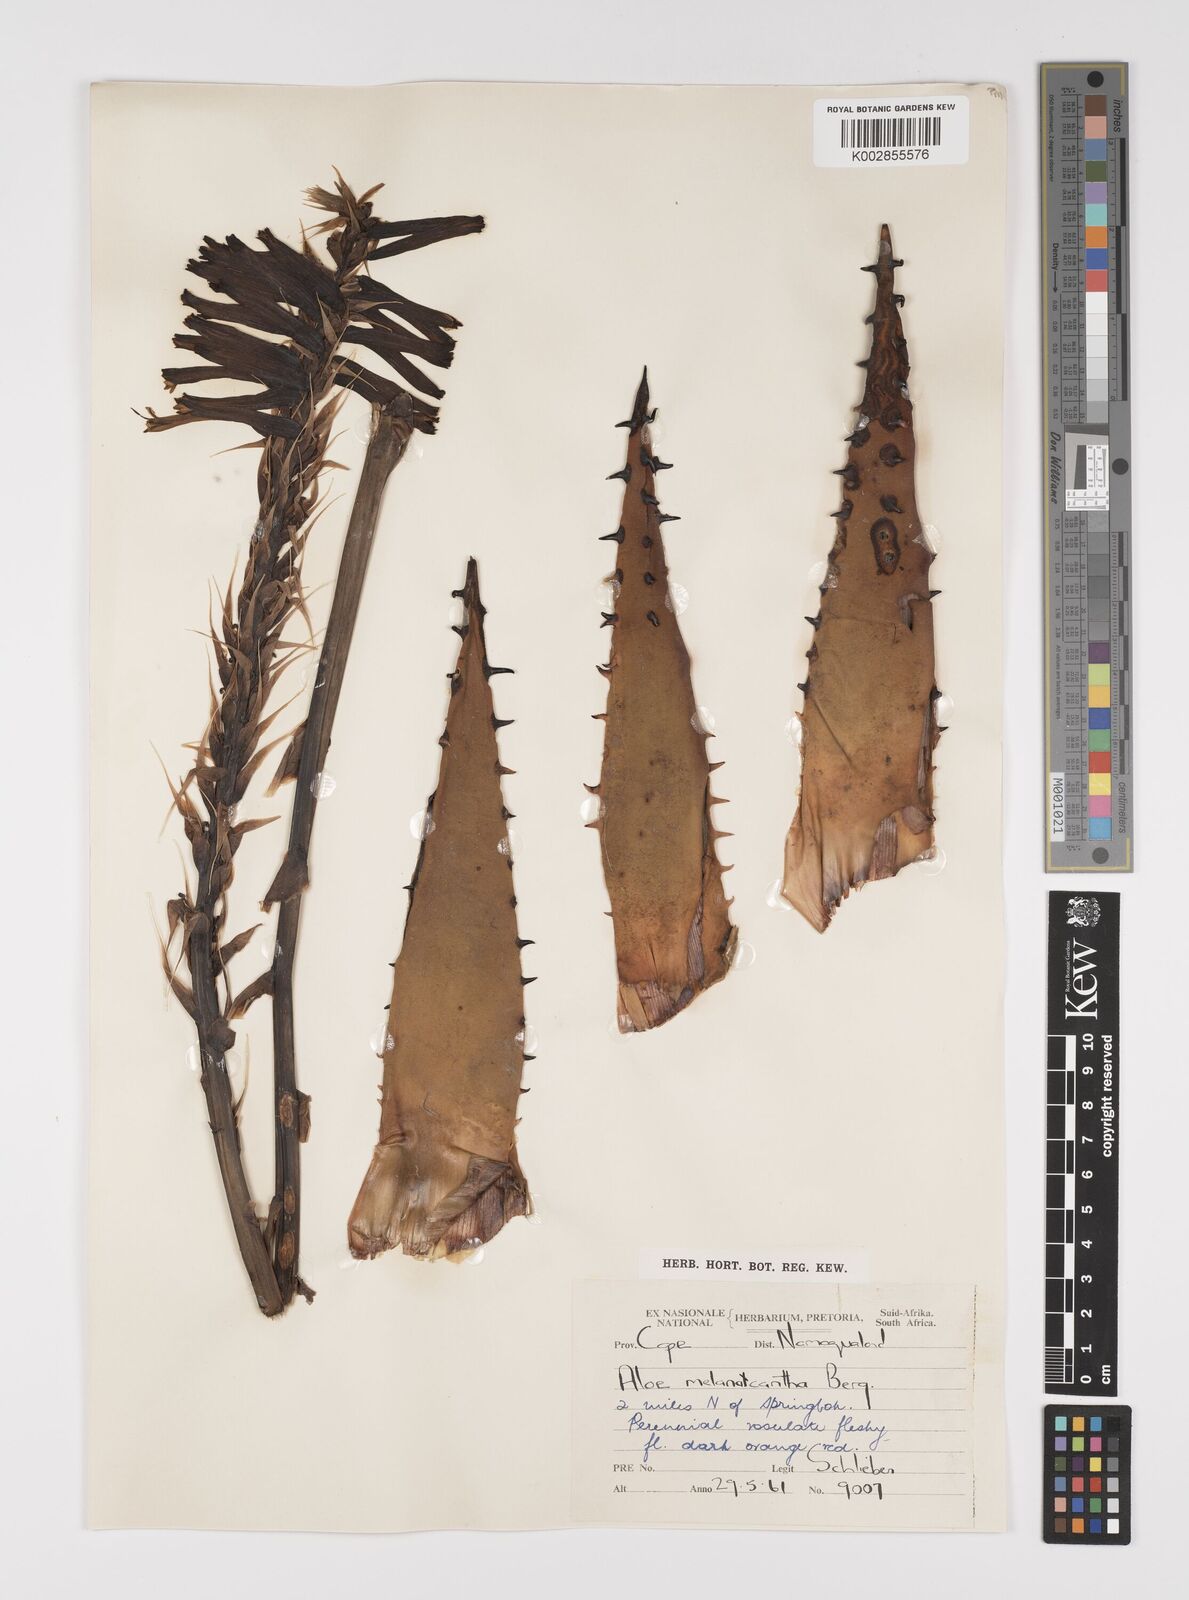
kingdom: Plantae
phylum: Tracheophyta
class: Liliopsida
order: Asparagales
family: Asphodelaceae
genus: Aloe
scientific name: Aloe melanacantha
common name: Black thorn aloe
